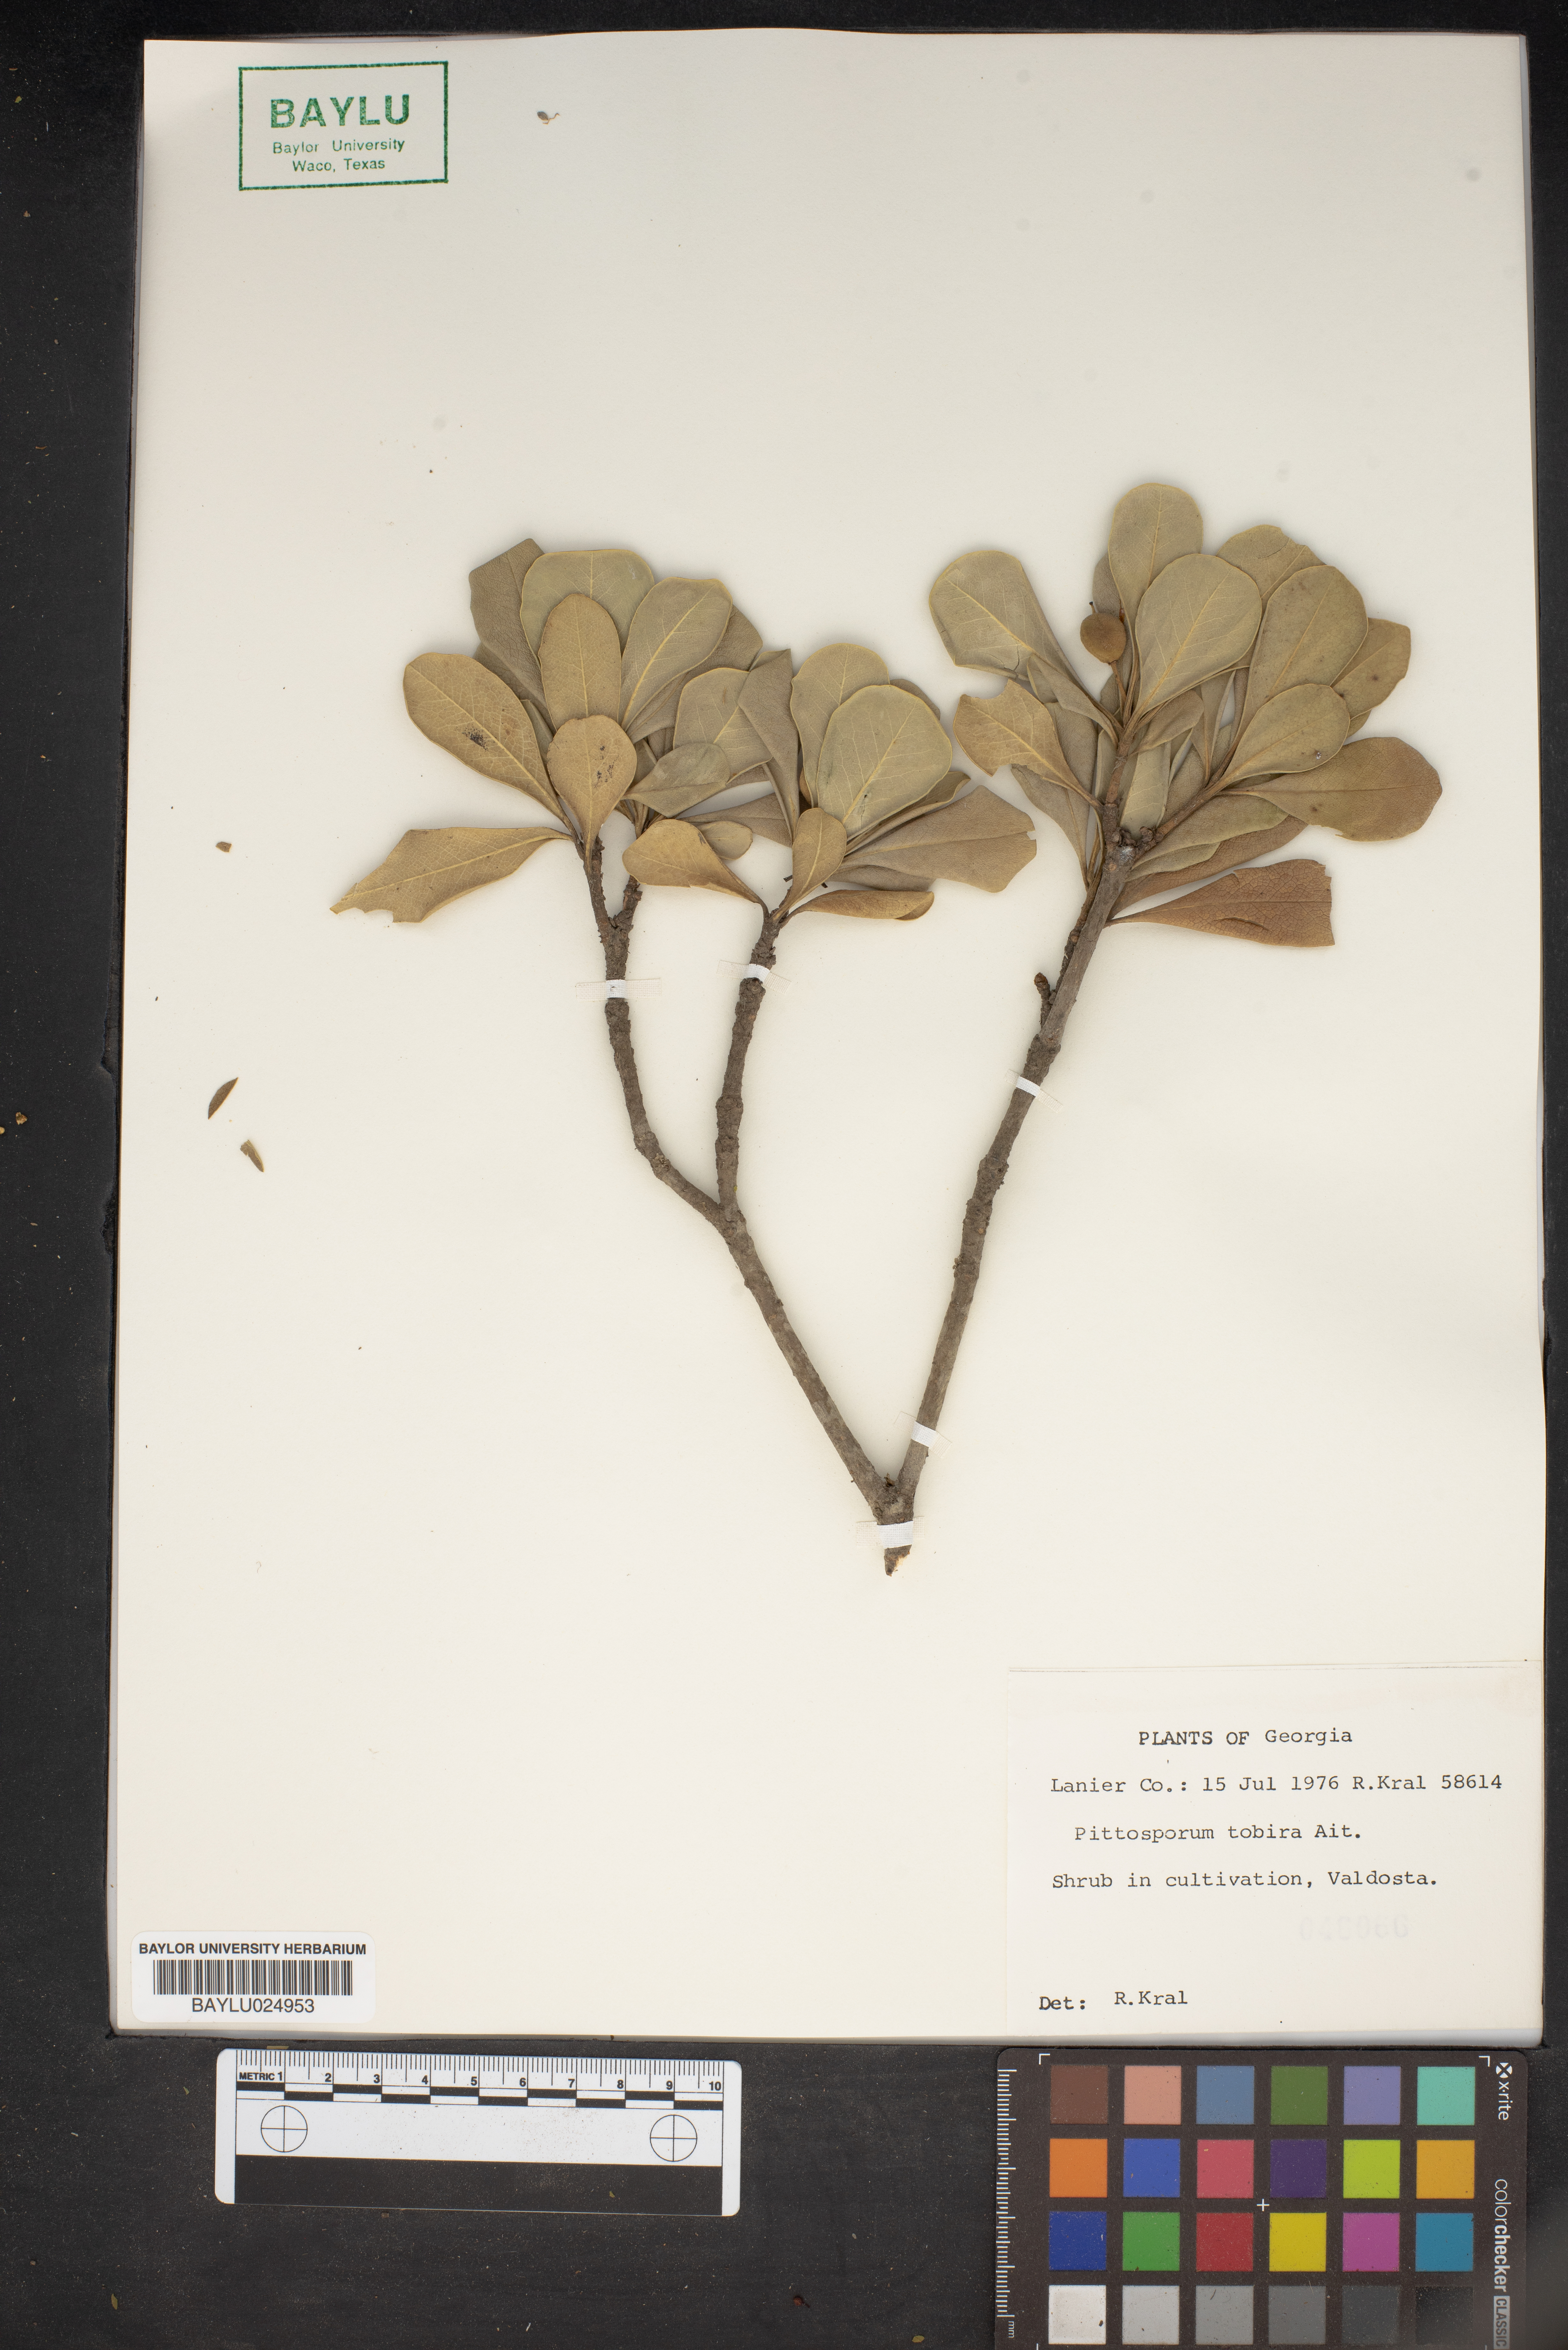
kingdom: Plantae
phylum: Tracheophyta
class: Magnoliopsida
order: Apiales
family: Pittosporaceae
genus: Pittosporum
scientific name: Pittosporum tobira
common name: Japanese cheesewood
